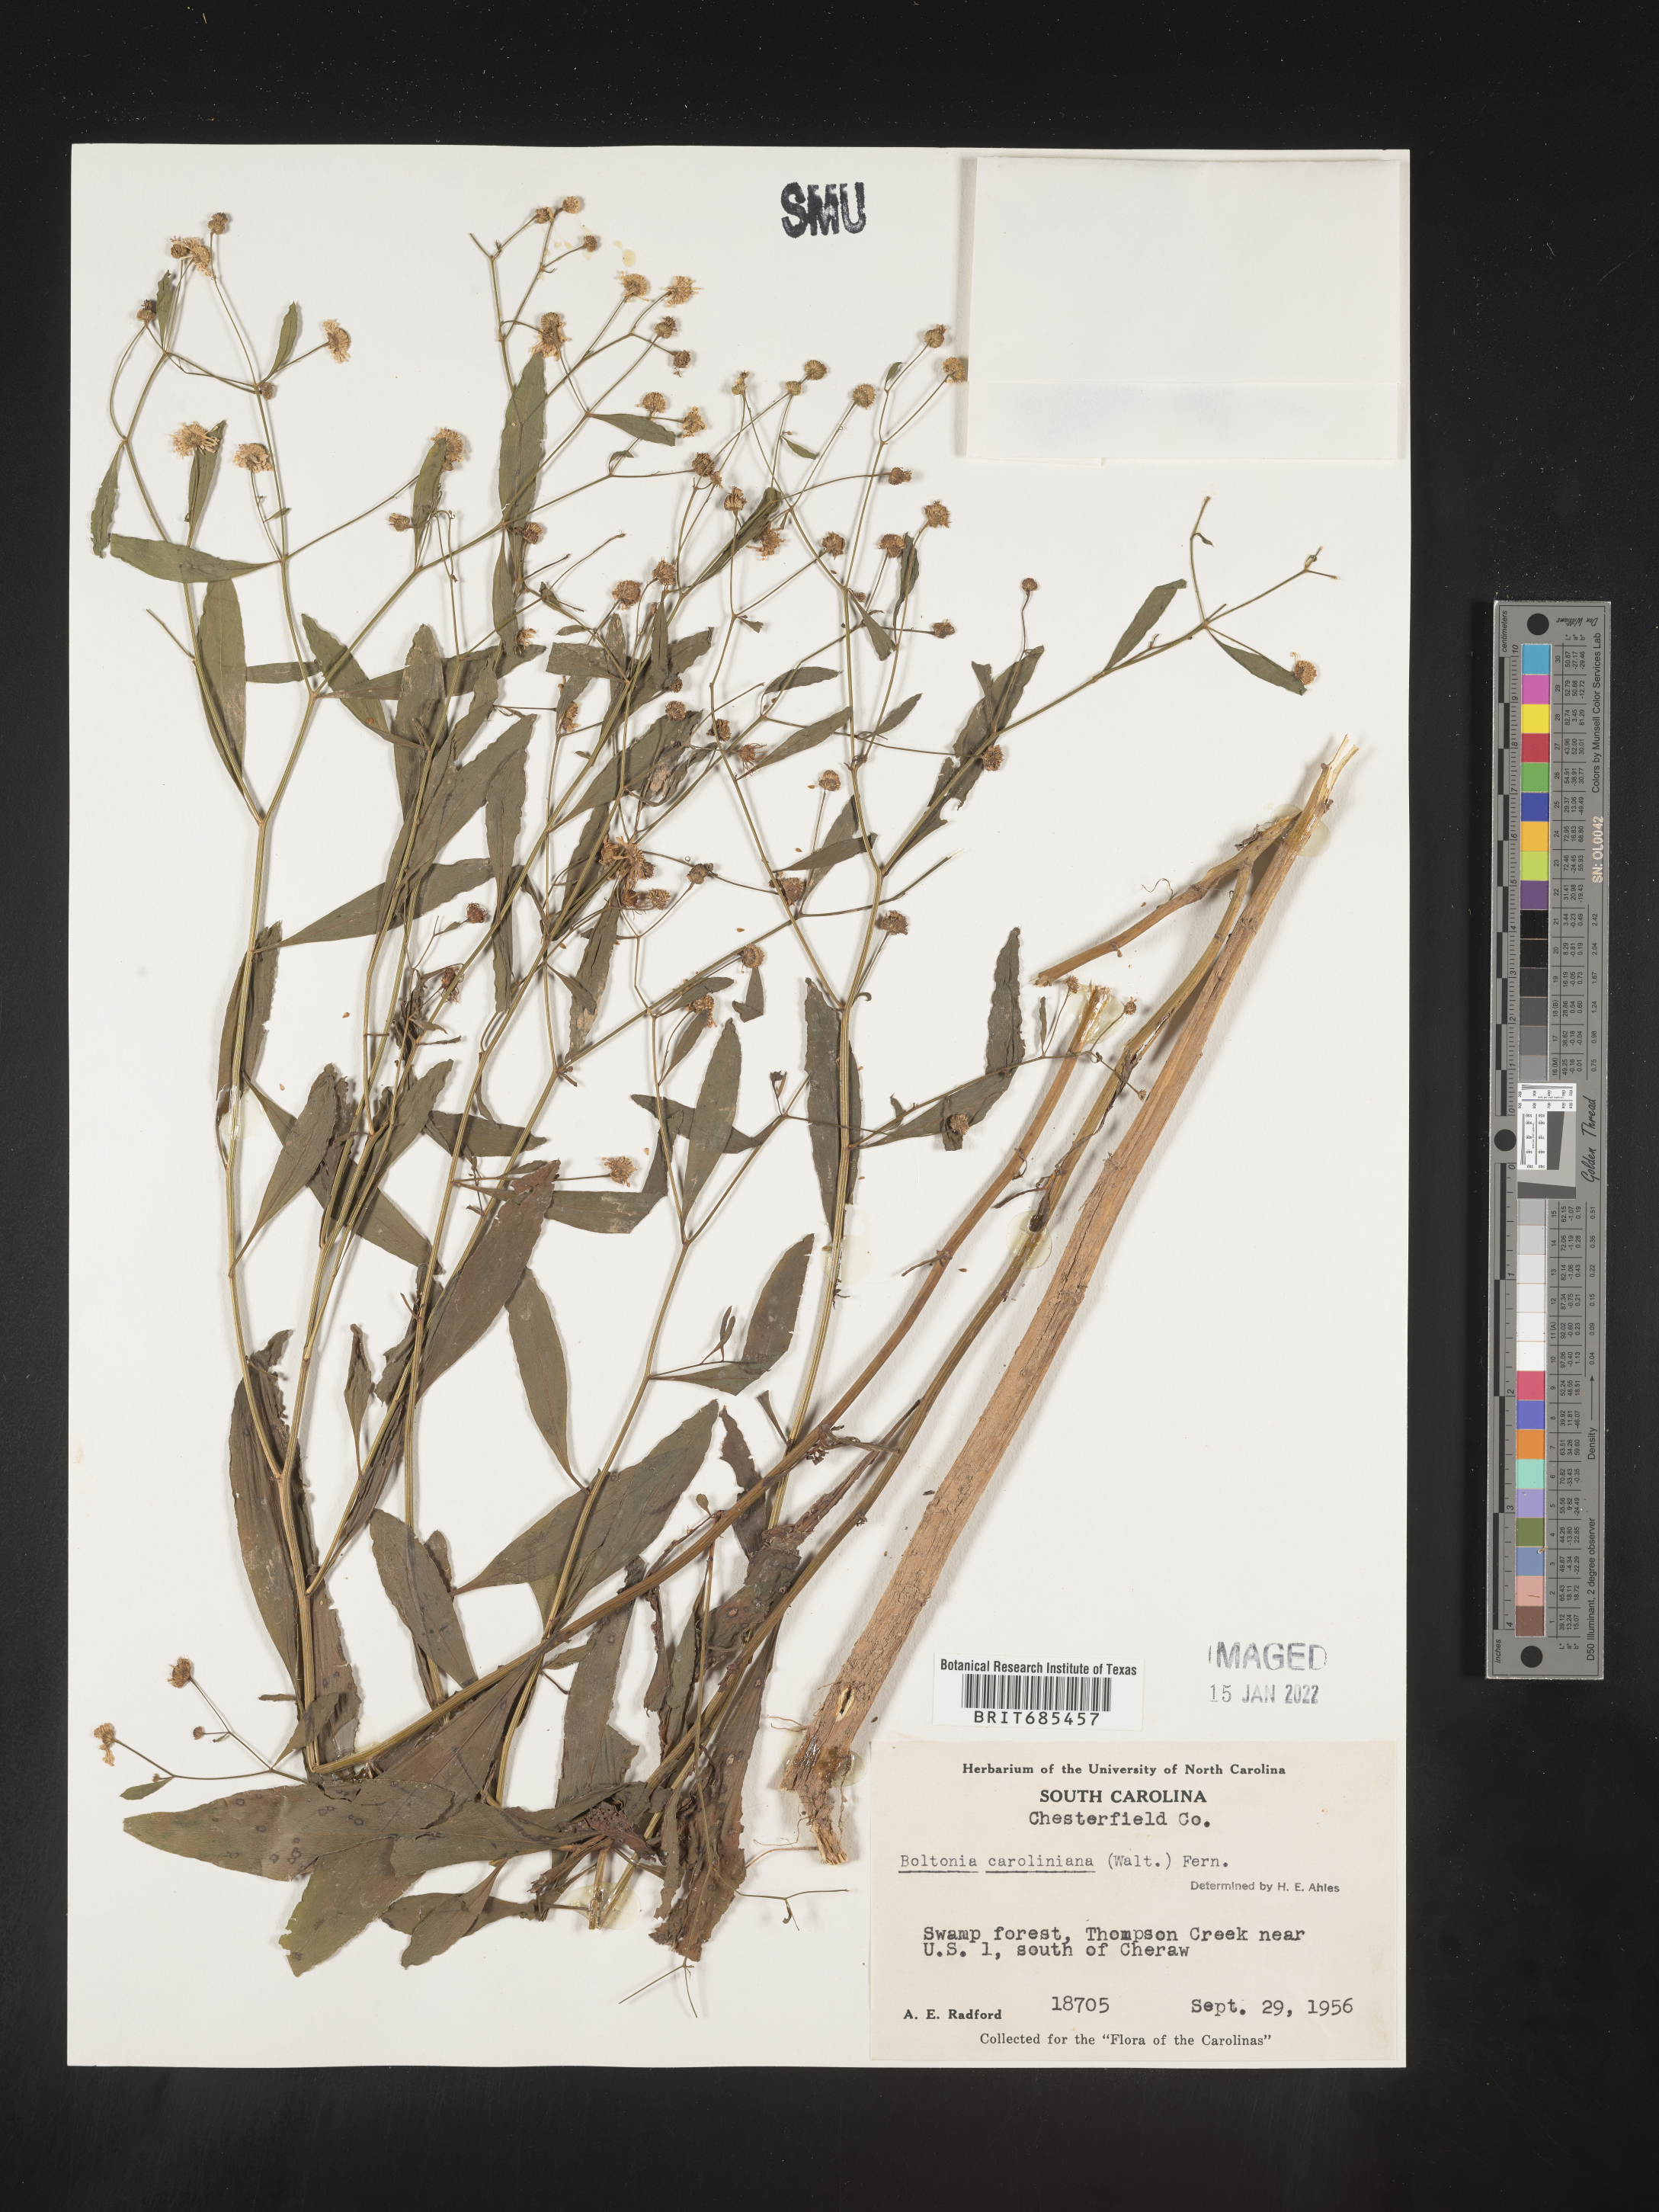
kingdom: Plantae
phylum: Tracheophyta
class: Magnoliopsida
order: Asterales
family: Asteraceae
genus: Boltonia
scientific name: Boltonia caroliniana
